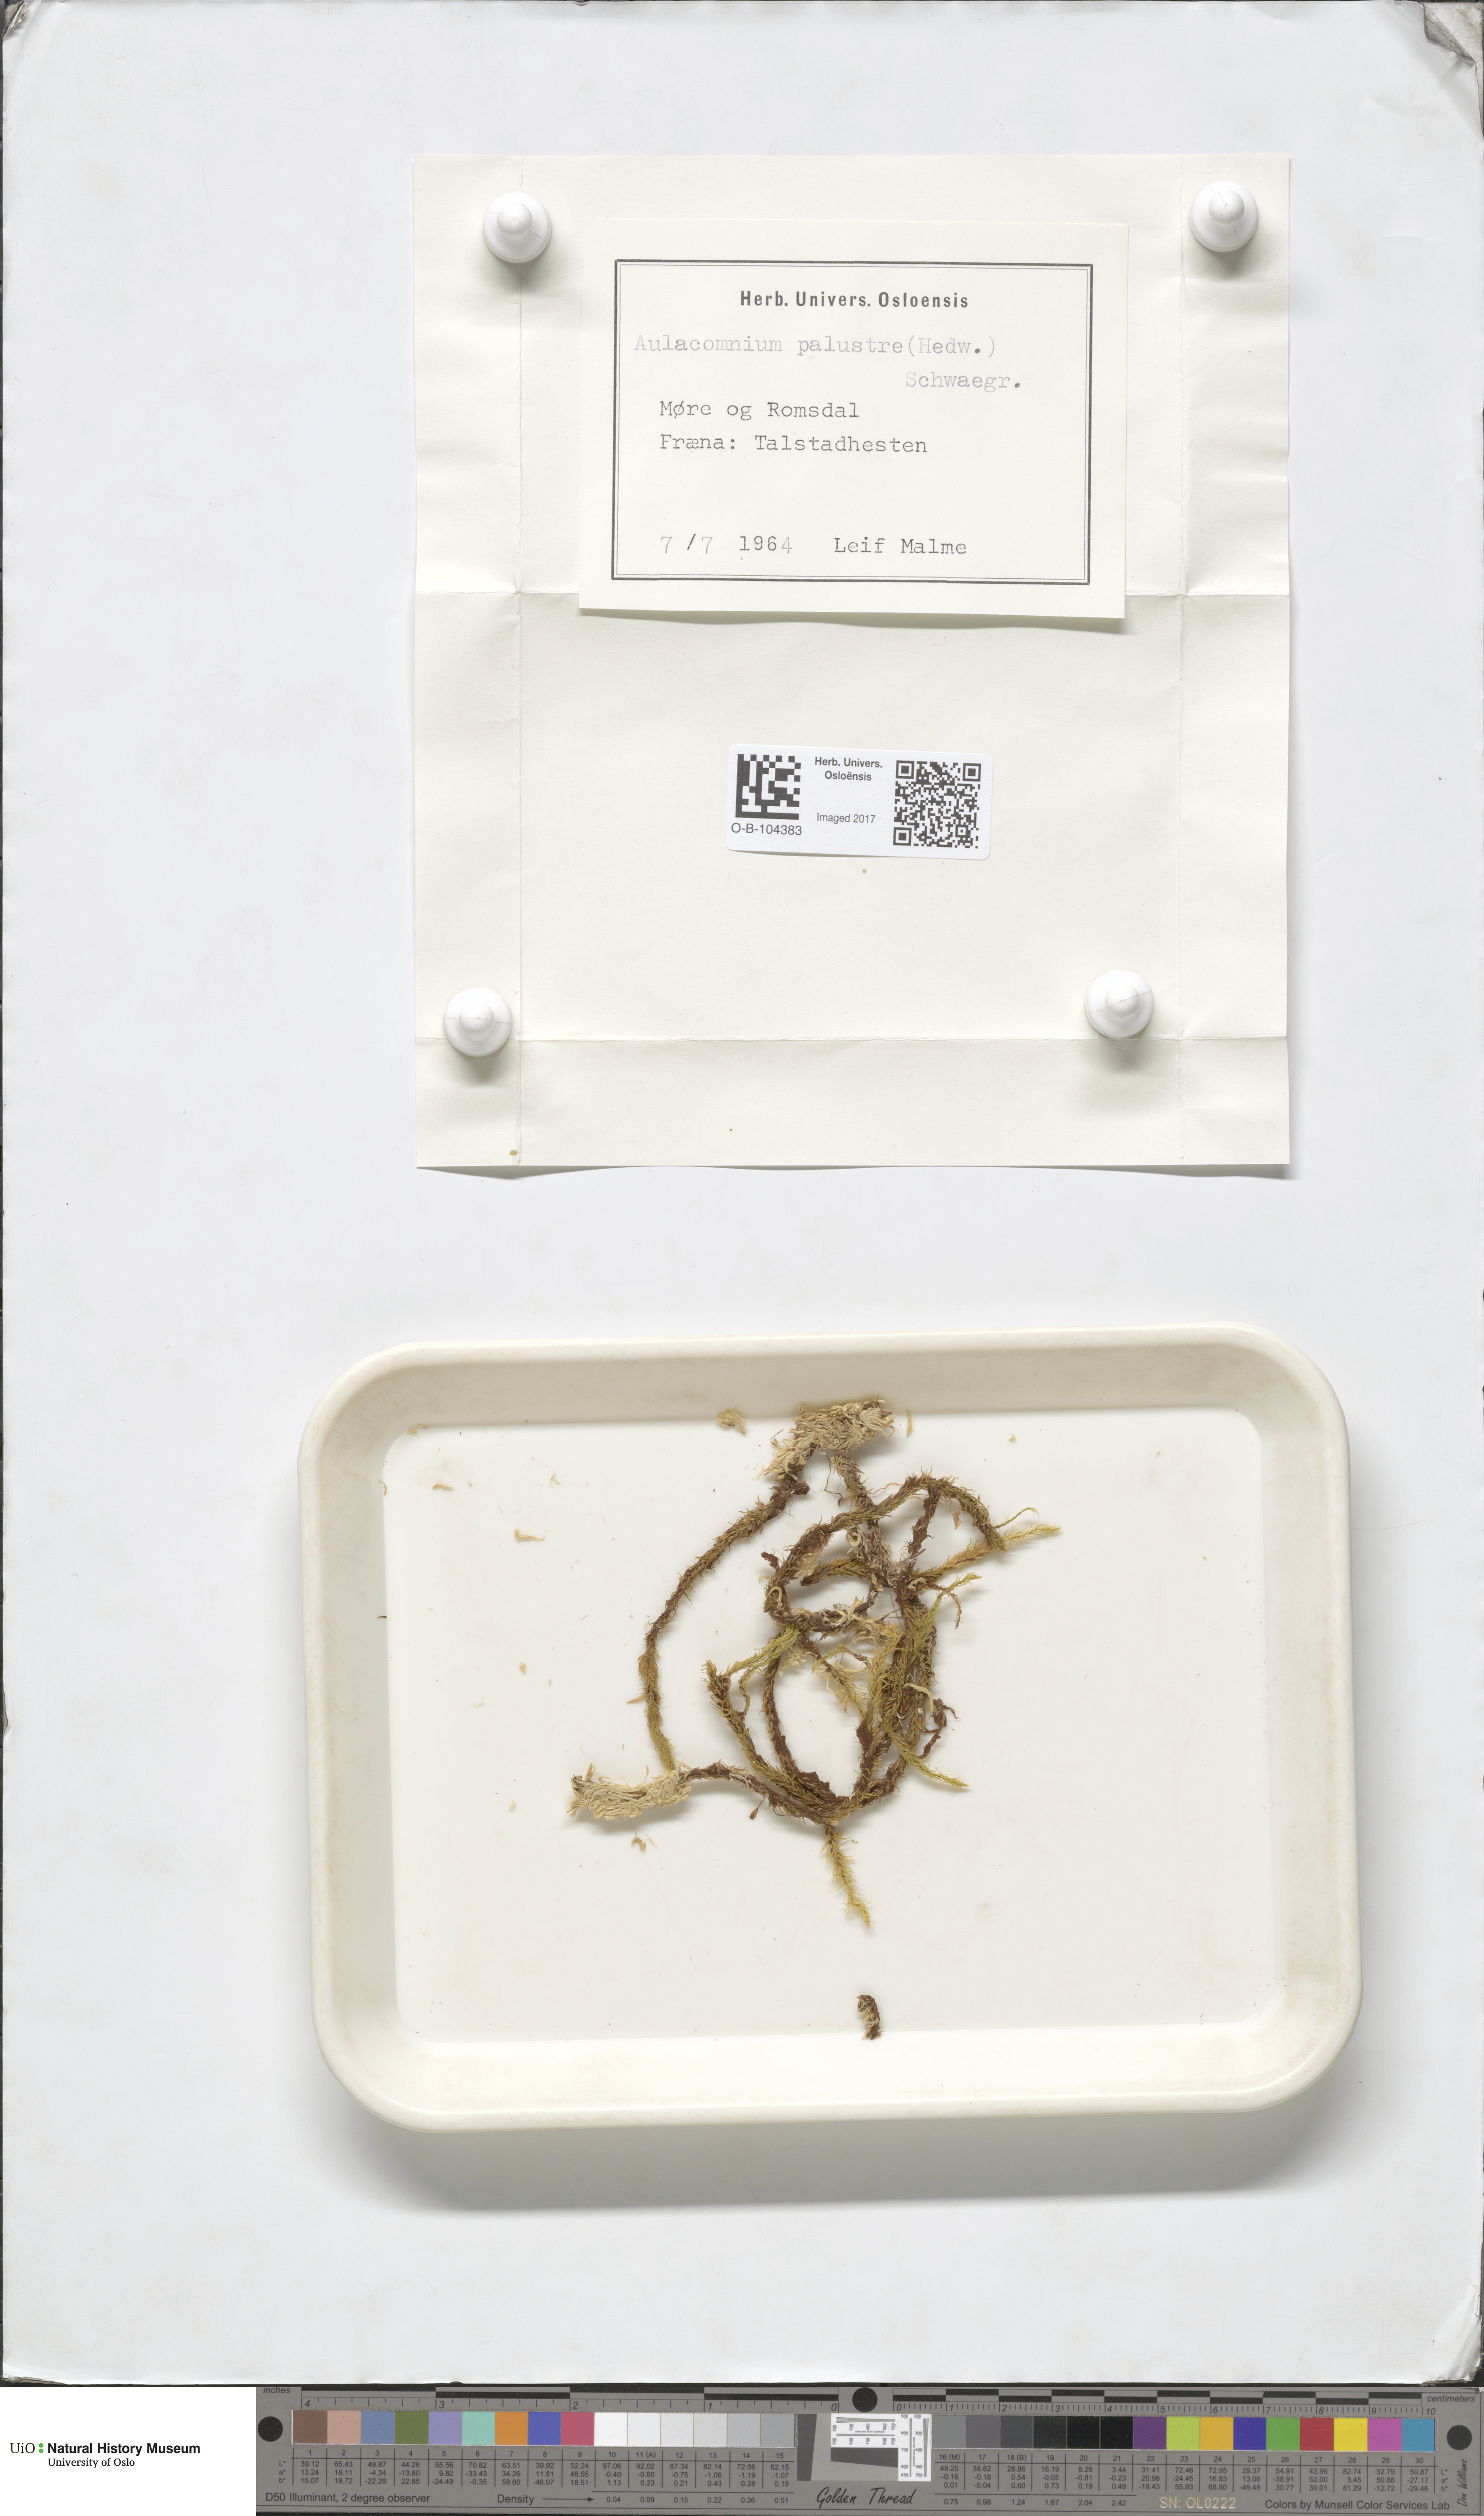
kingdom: Plantae
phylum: Bryophyta
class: Bryopsida
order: Aulacomniales
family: Aulacomniaceae
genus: Aulacomnium
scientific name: Aulacomnium palustre
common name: Bog groove-moss
